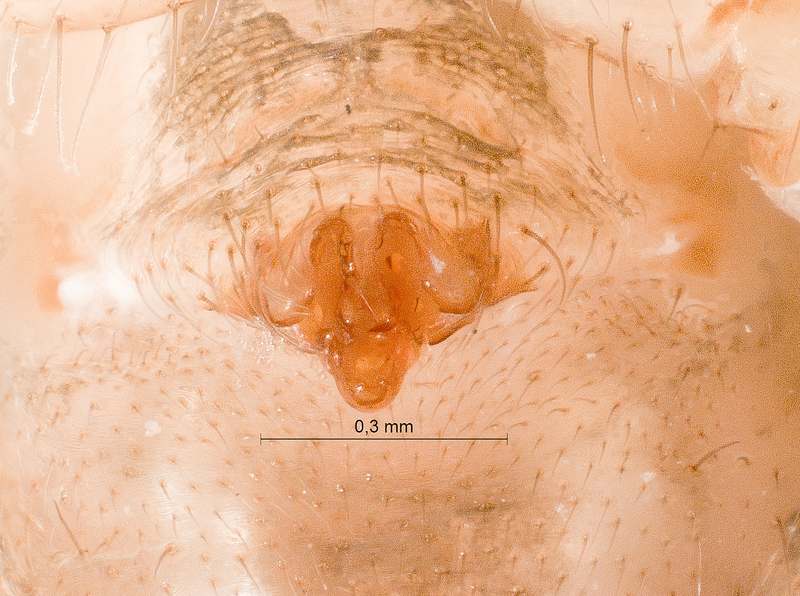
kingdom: Animalia
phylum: Arthropoda
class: Arachnida
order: Araneae
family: Linyphiidae
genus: Bolyphantes
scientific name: Bolyphantes alticeps
